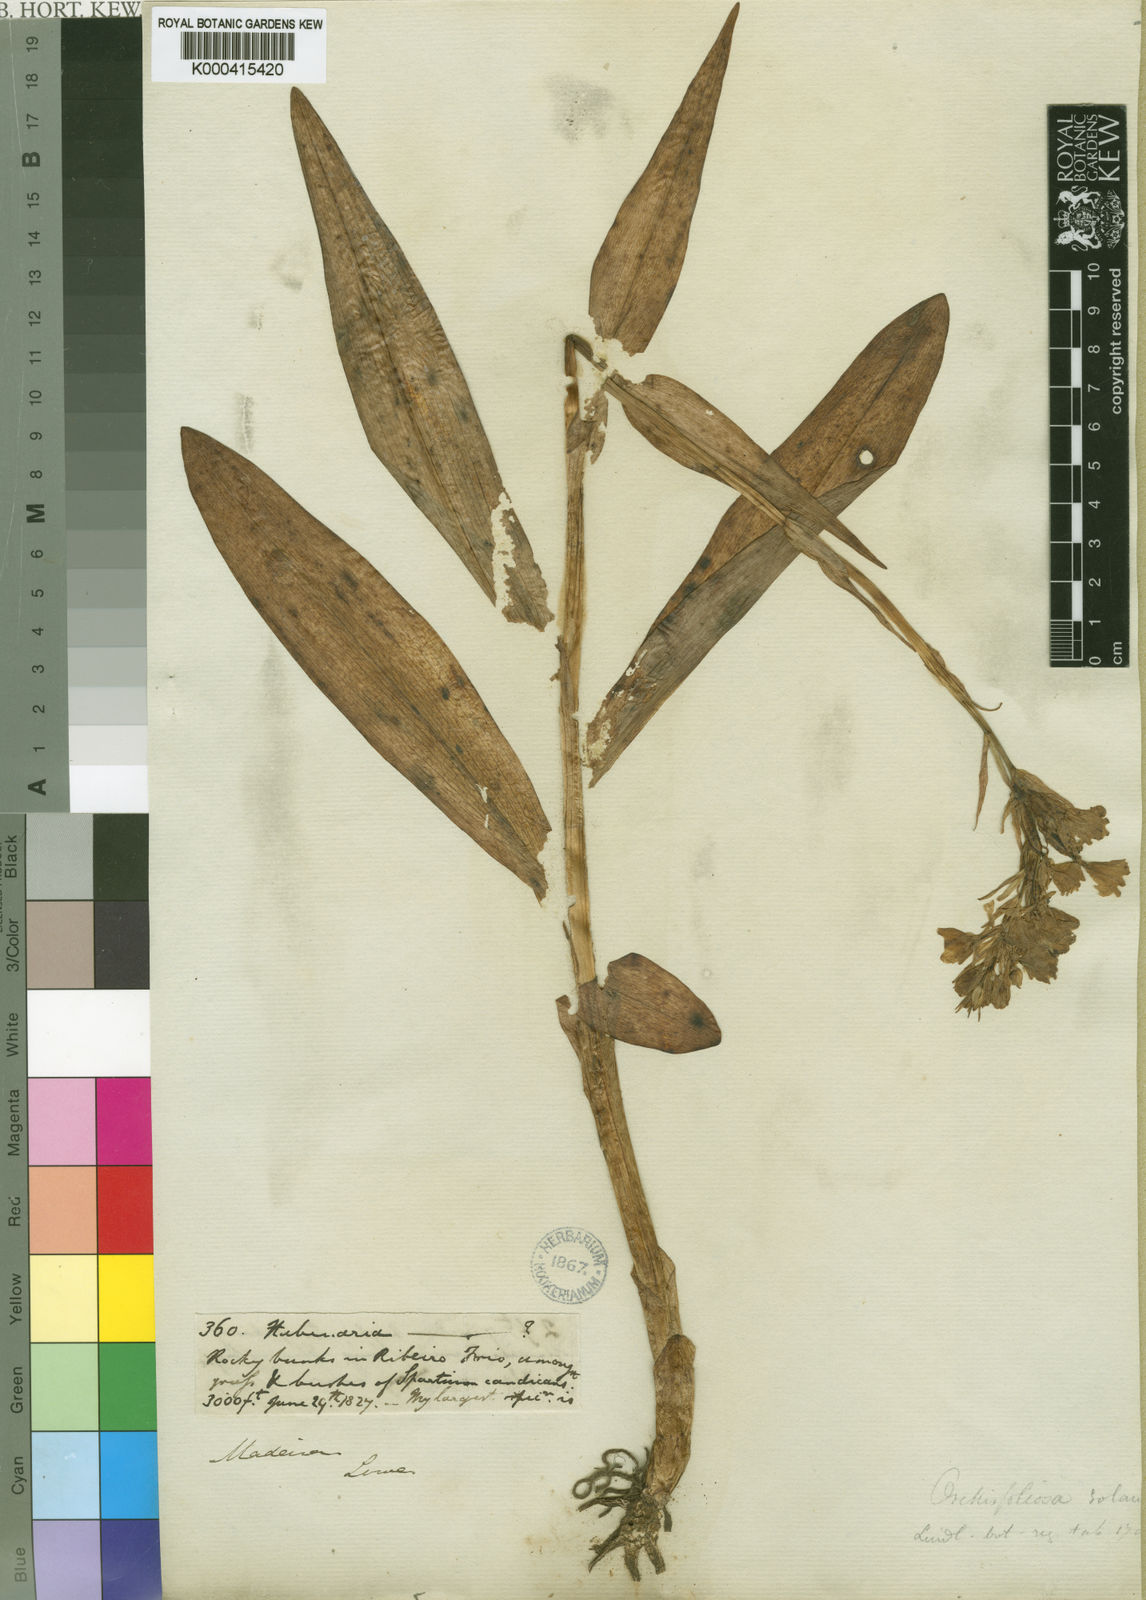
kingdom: Plantae
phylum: Tracheophyta
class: Liliopsida
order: Asparagales
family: Orchidaceae
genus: Dactylorhiza
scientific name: Dactylorhiza
